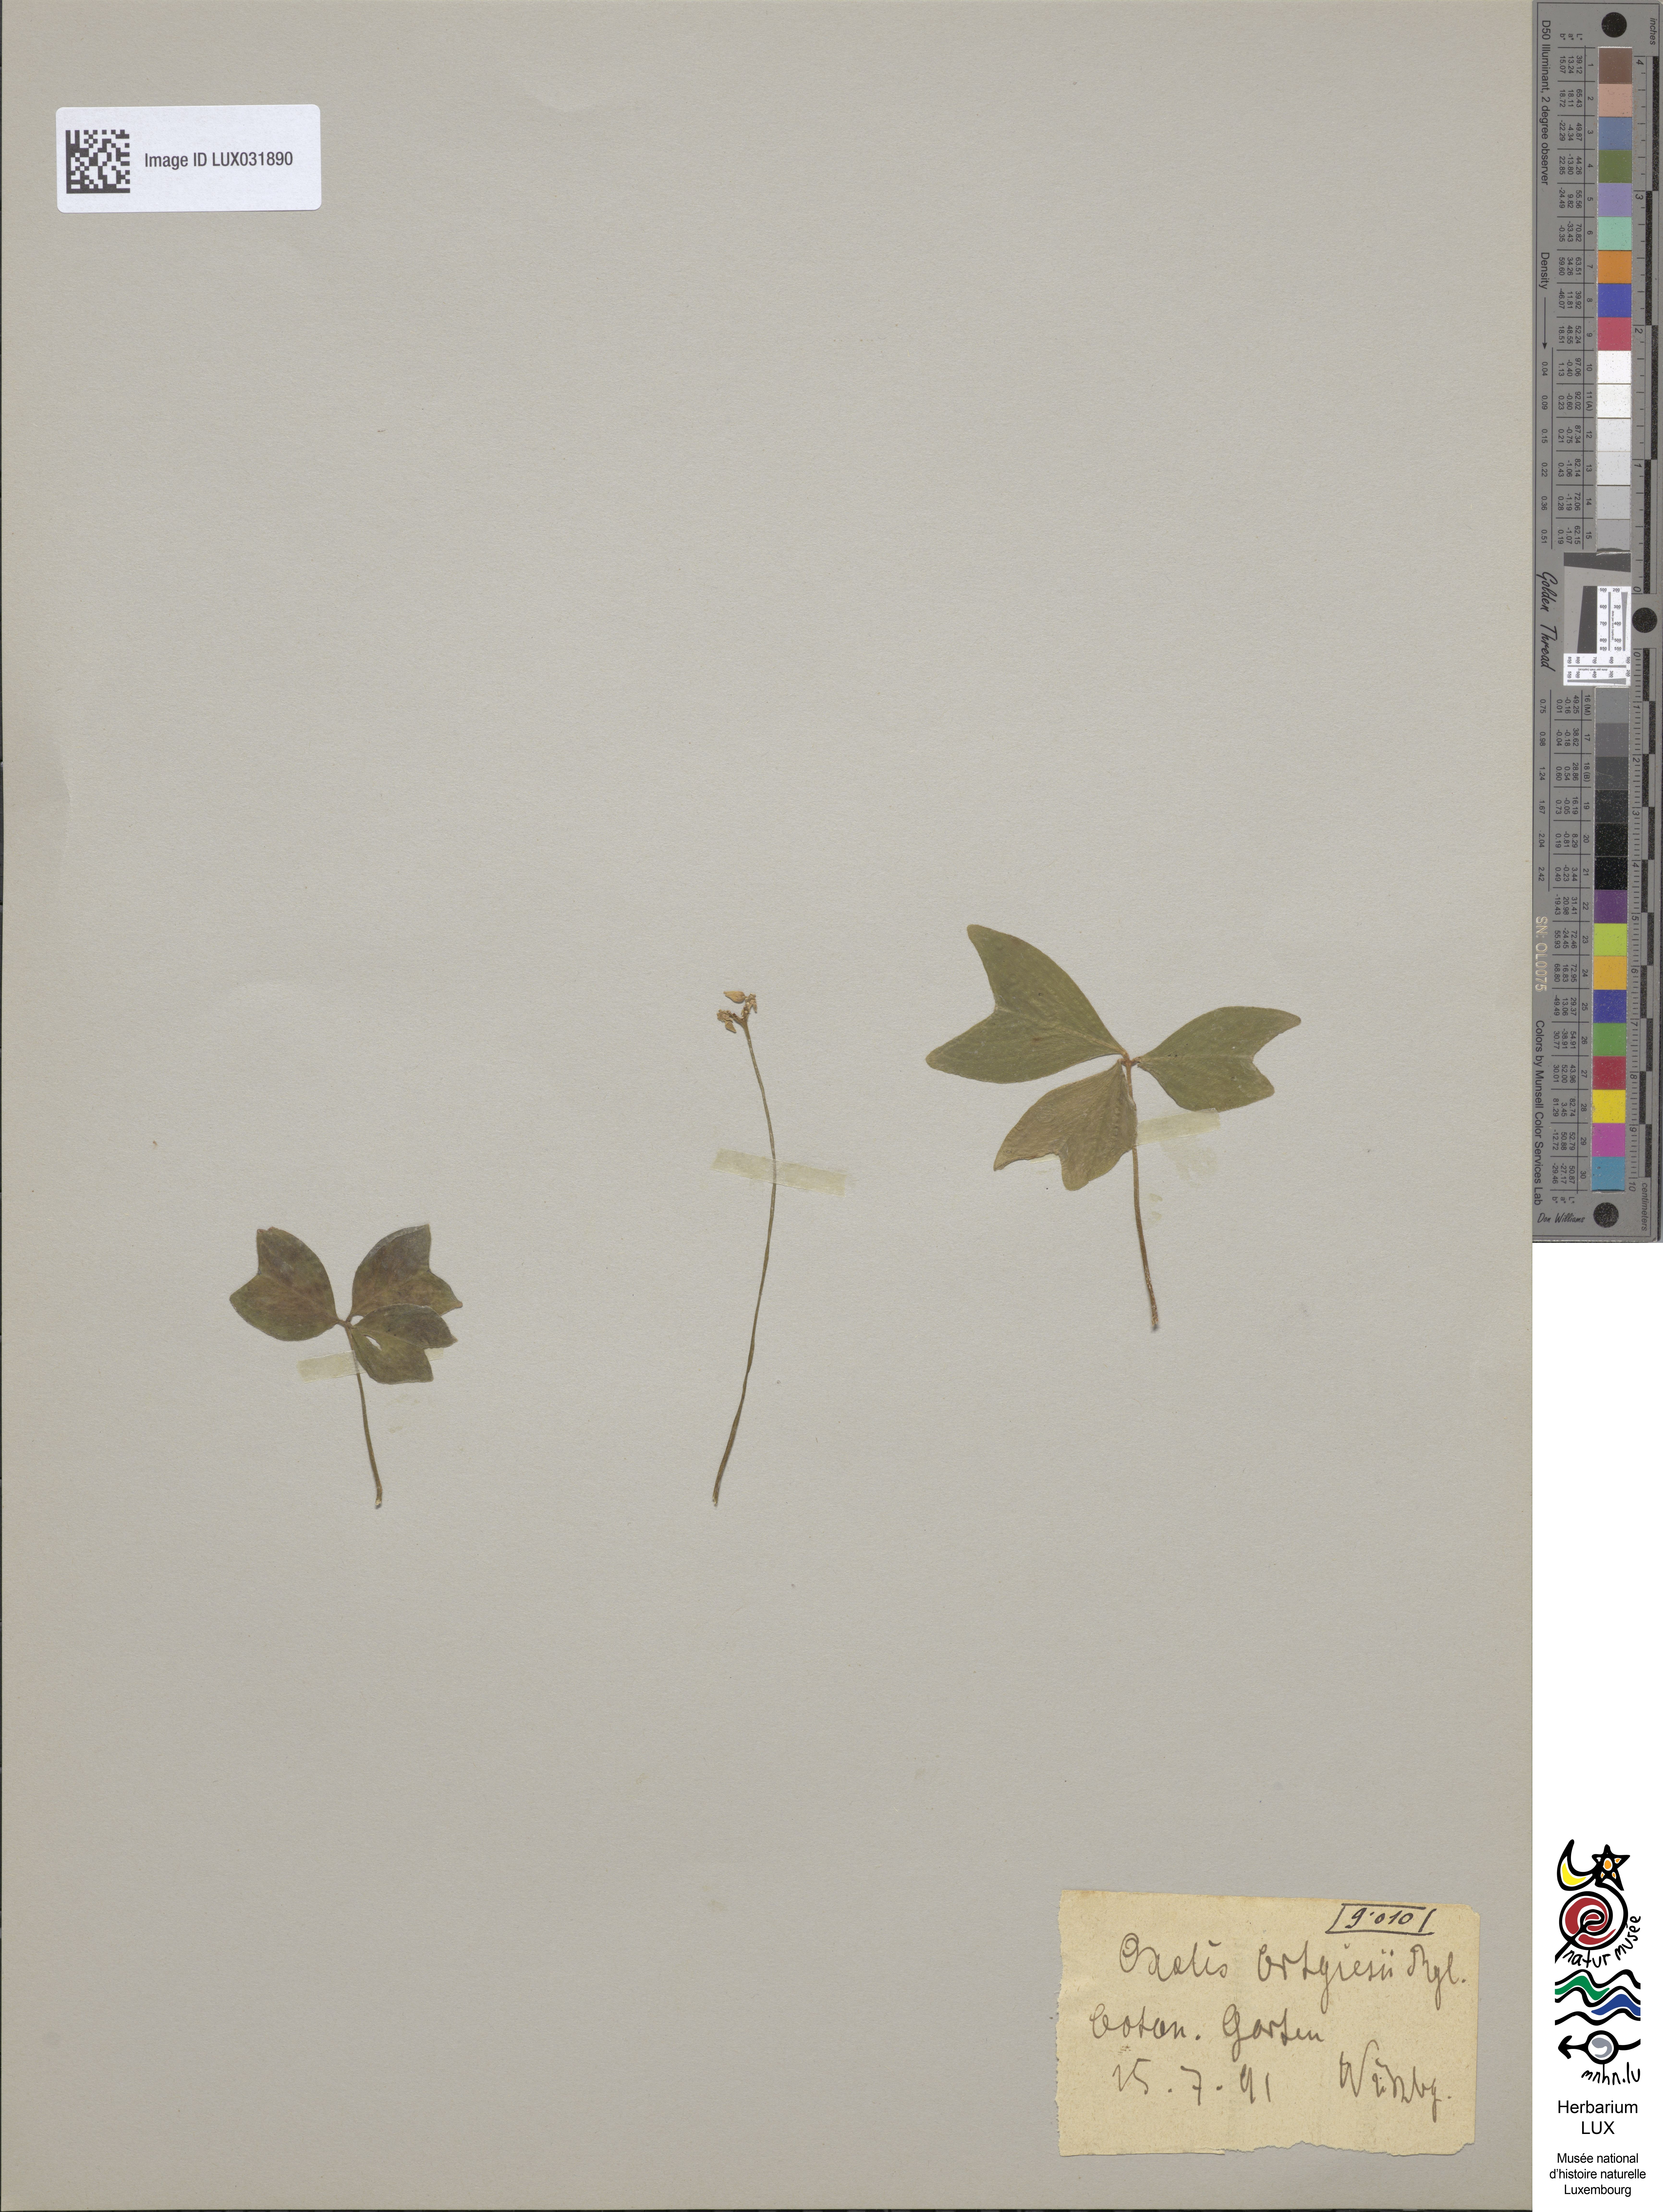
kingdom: Plantae
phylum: Tracheophyta
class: Magnoliopsida
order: Oxalidales
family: Oxalidaceae
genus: Oxalis
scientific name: Oxalis ortgiesii
